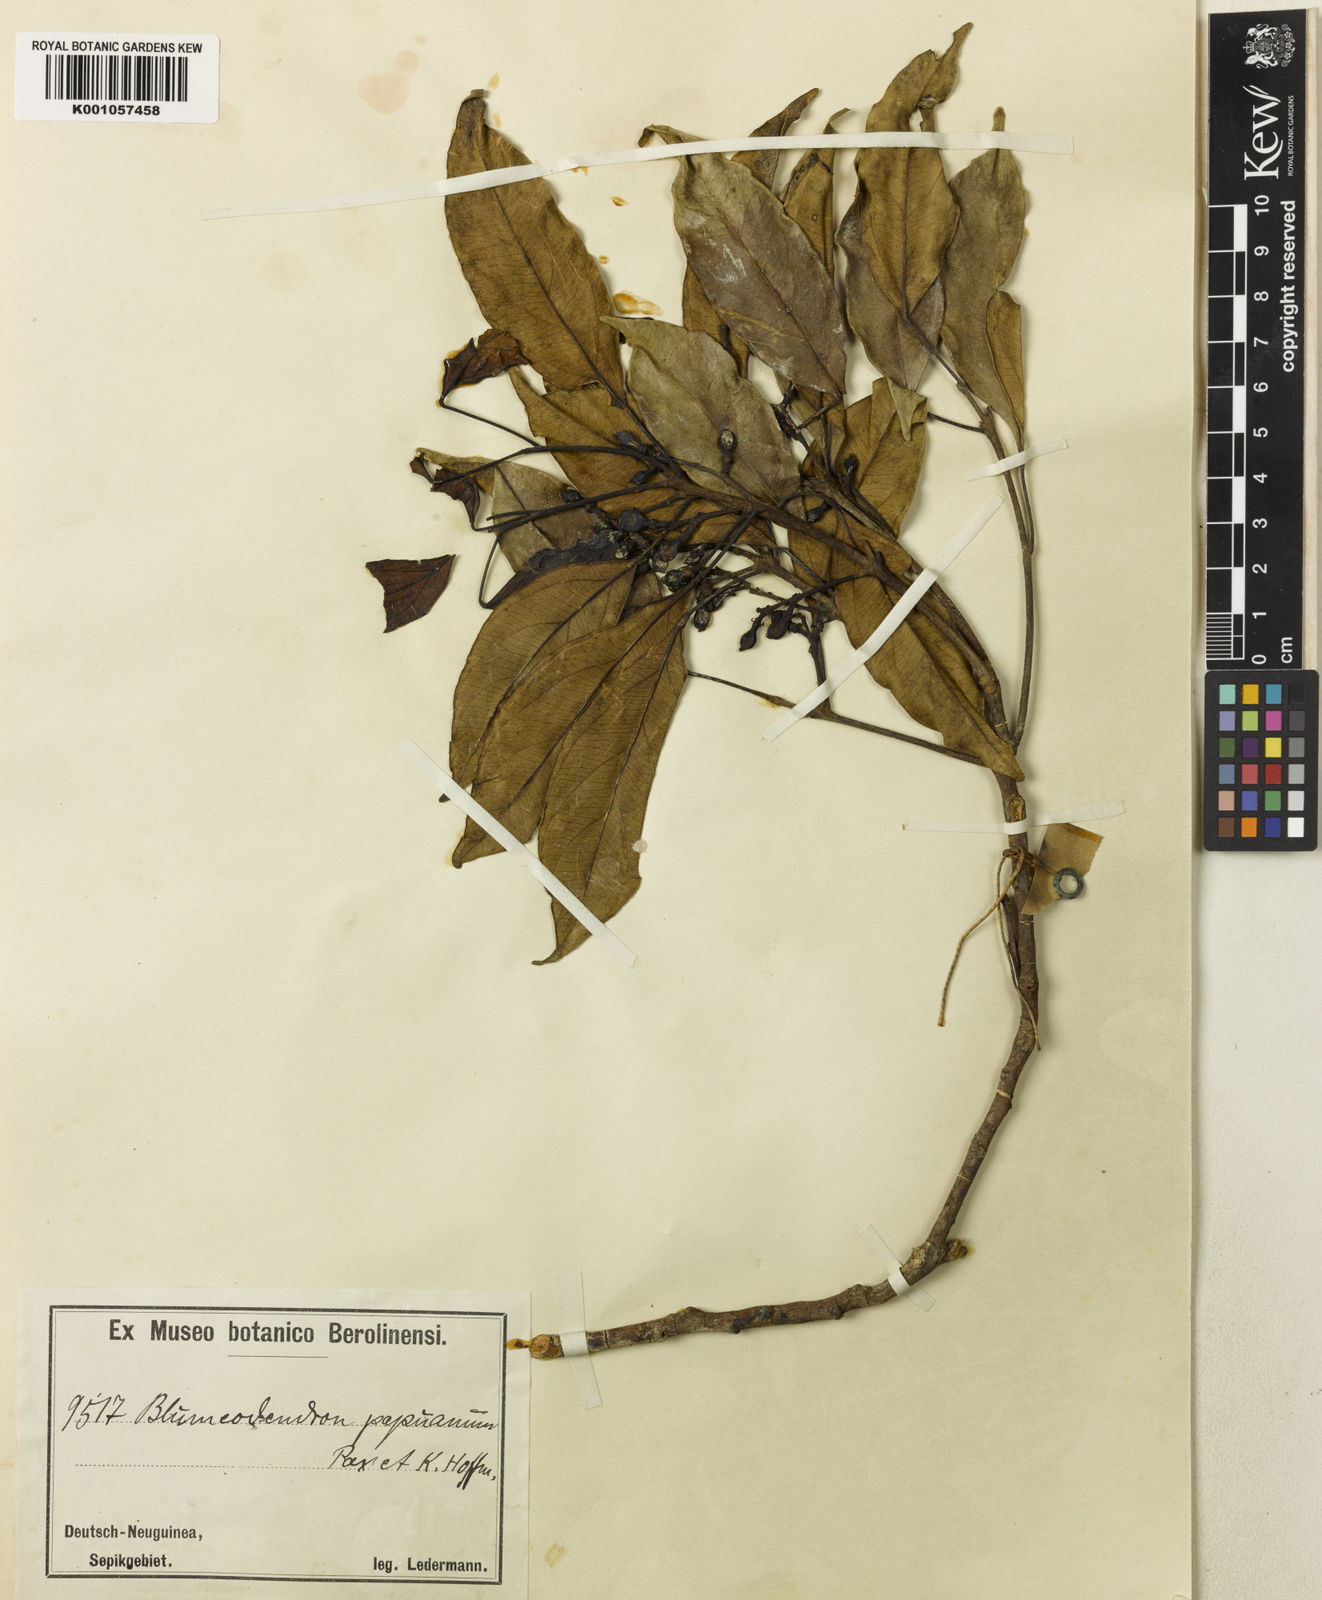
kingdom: Plantae
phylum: Tracheophyta
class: Magnoliopsida
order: Malpighiales
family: Euphorbiaceae
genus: Blumeodendron
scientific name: Blumeodendron tokbrai
